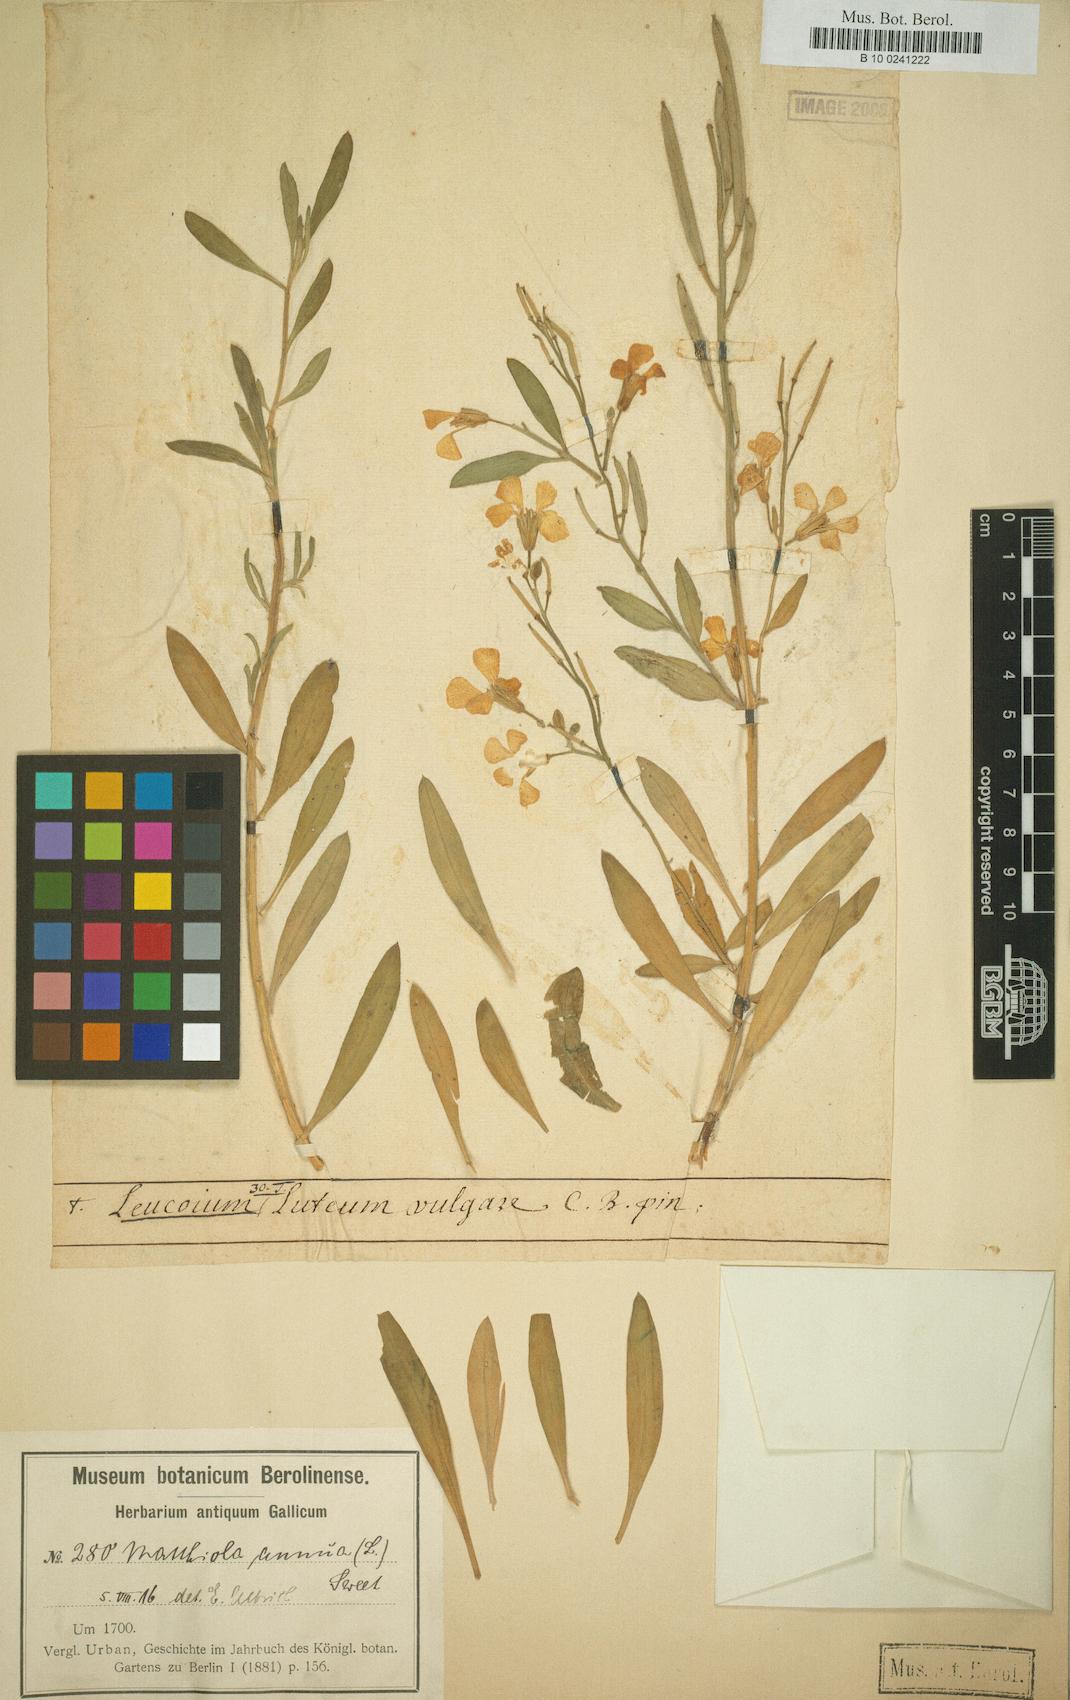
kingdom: Plantae
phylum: Tracheophyta
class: Magnoliopsida
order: Brassicales
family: Brassicaceae
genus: Matthiola
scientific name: Matthiola incana
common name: Hoary stock
